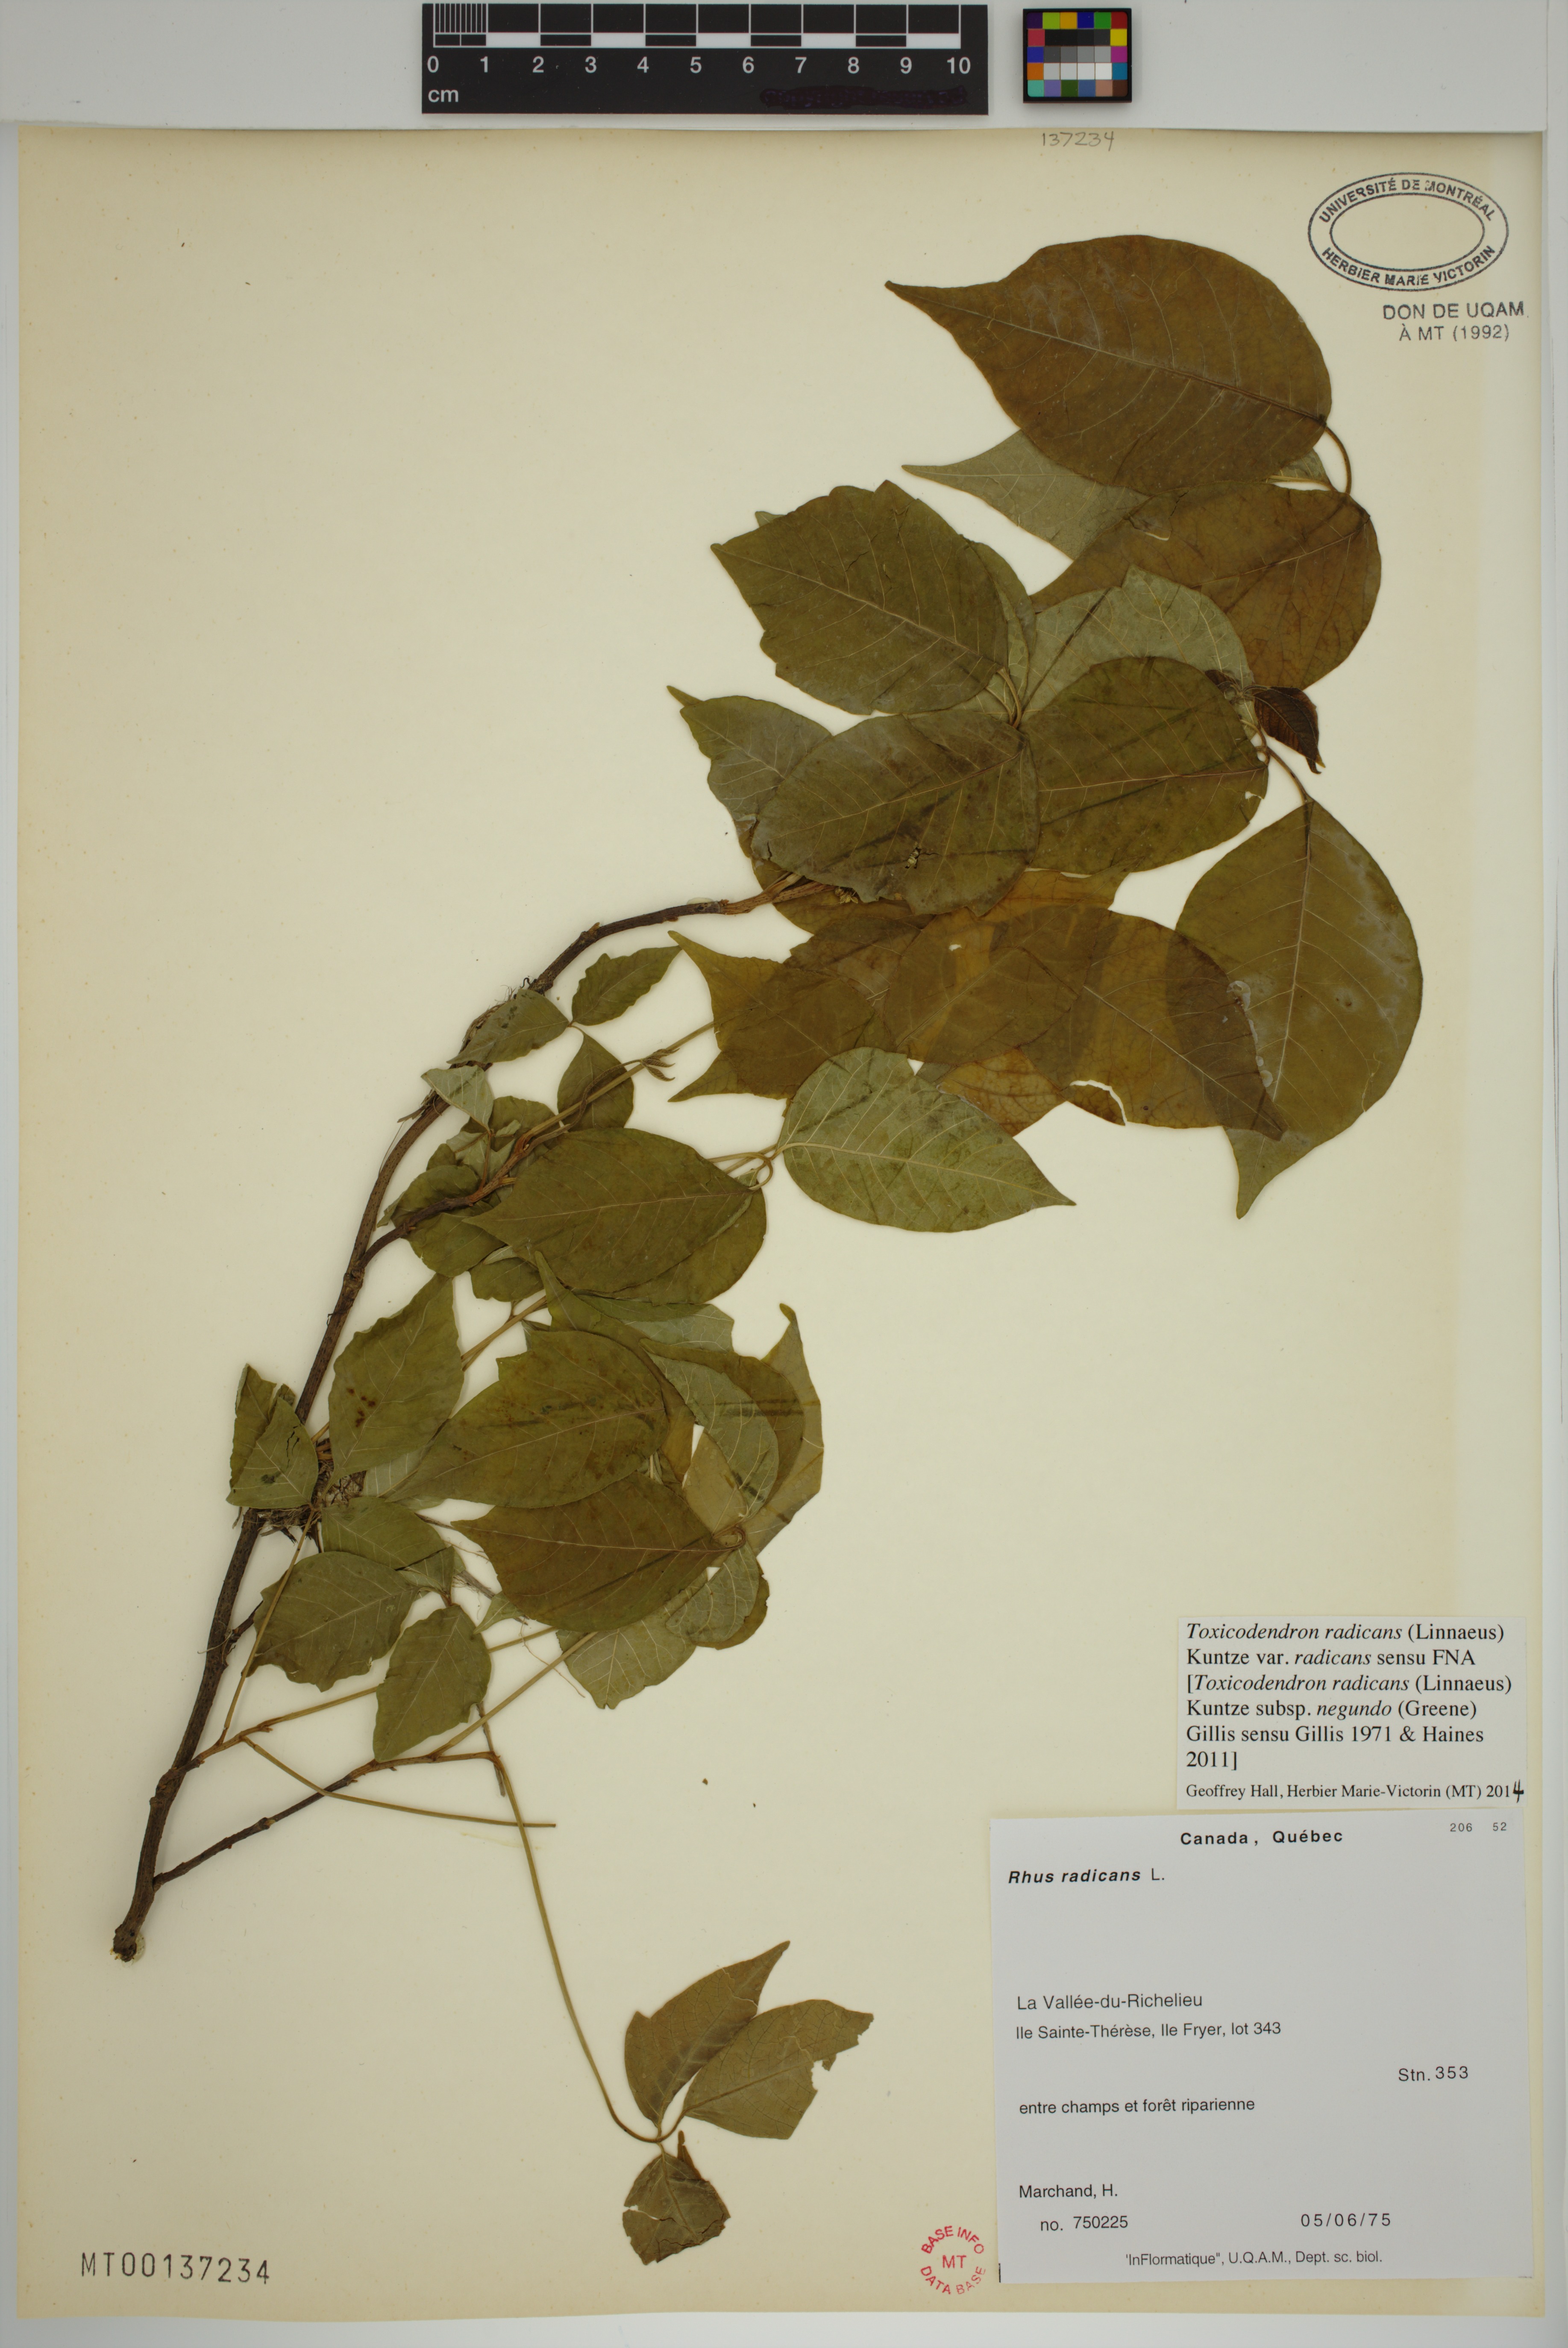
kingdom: Plantae
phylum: Tracheophyta
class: Magnoliopsida
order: Sapindales
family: Anacardiaceae
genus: Toxicodendron
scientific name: Toxicodendron radicans
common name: Poison ivy
